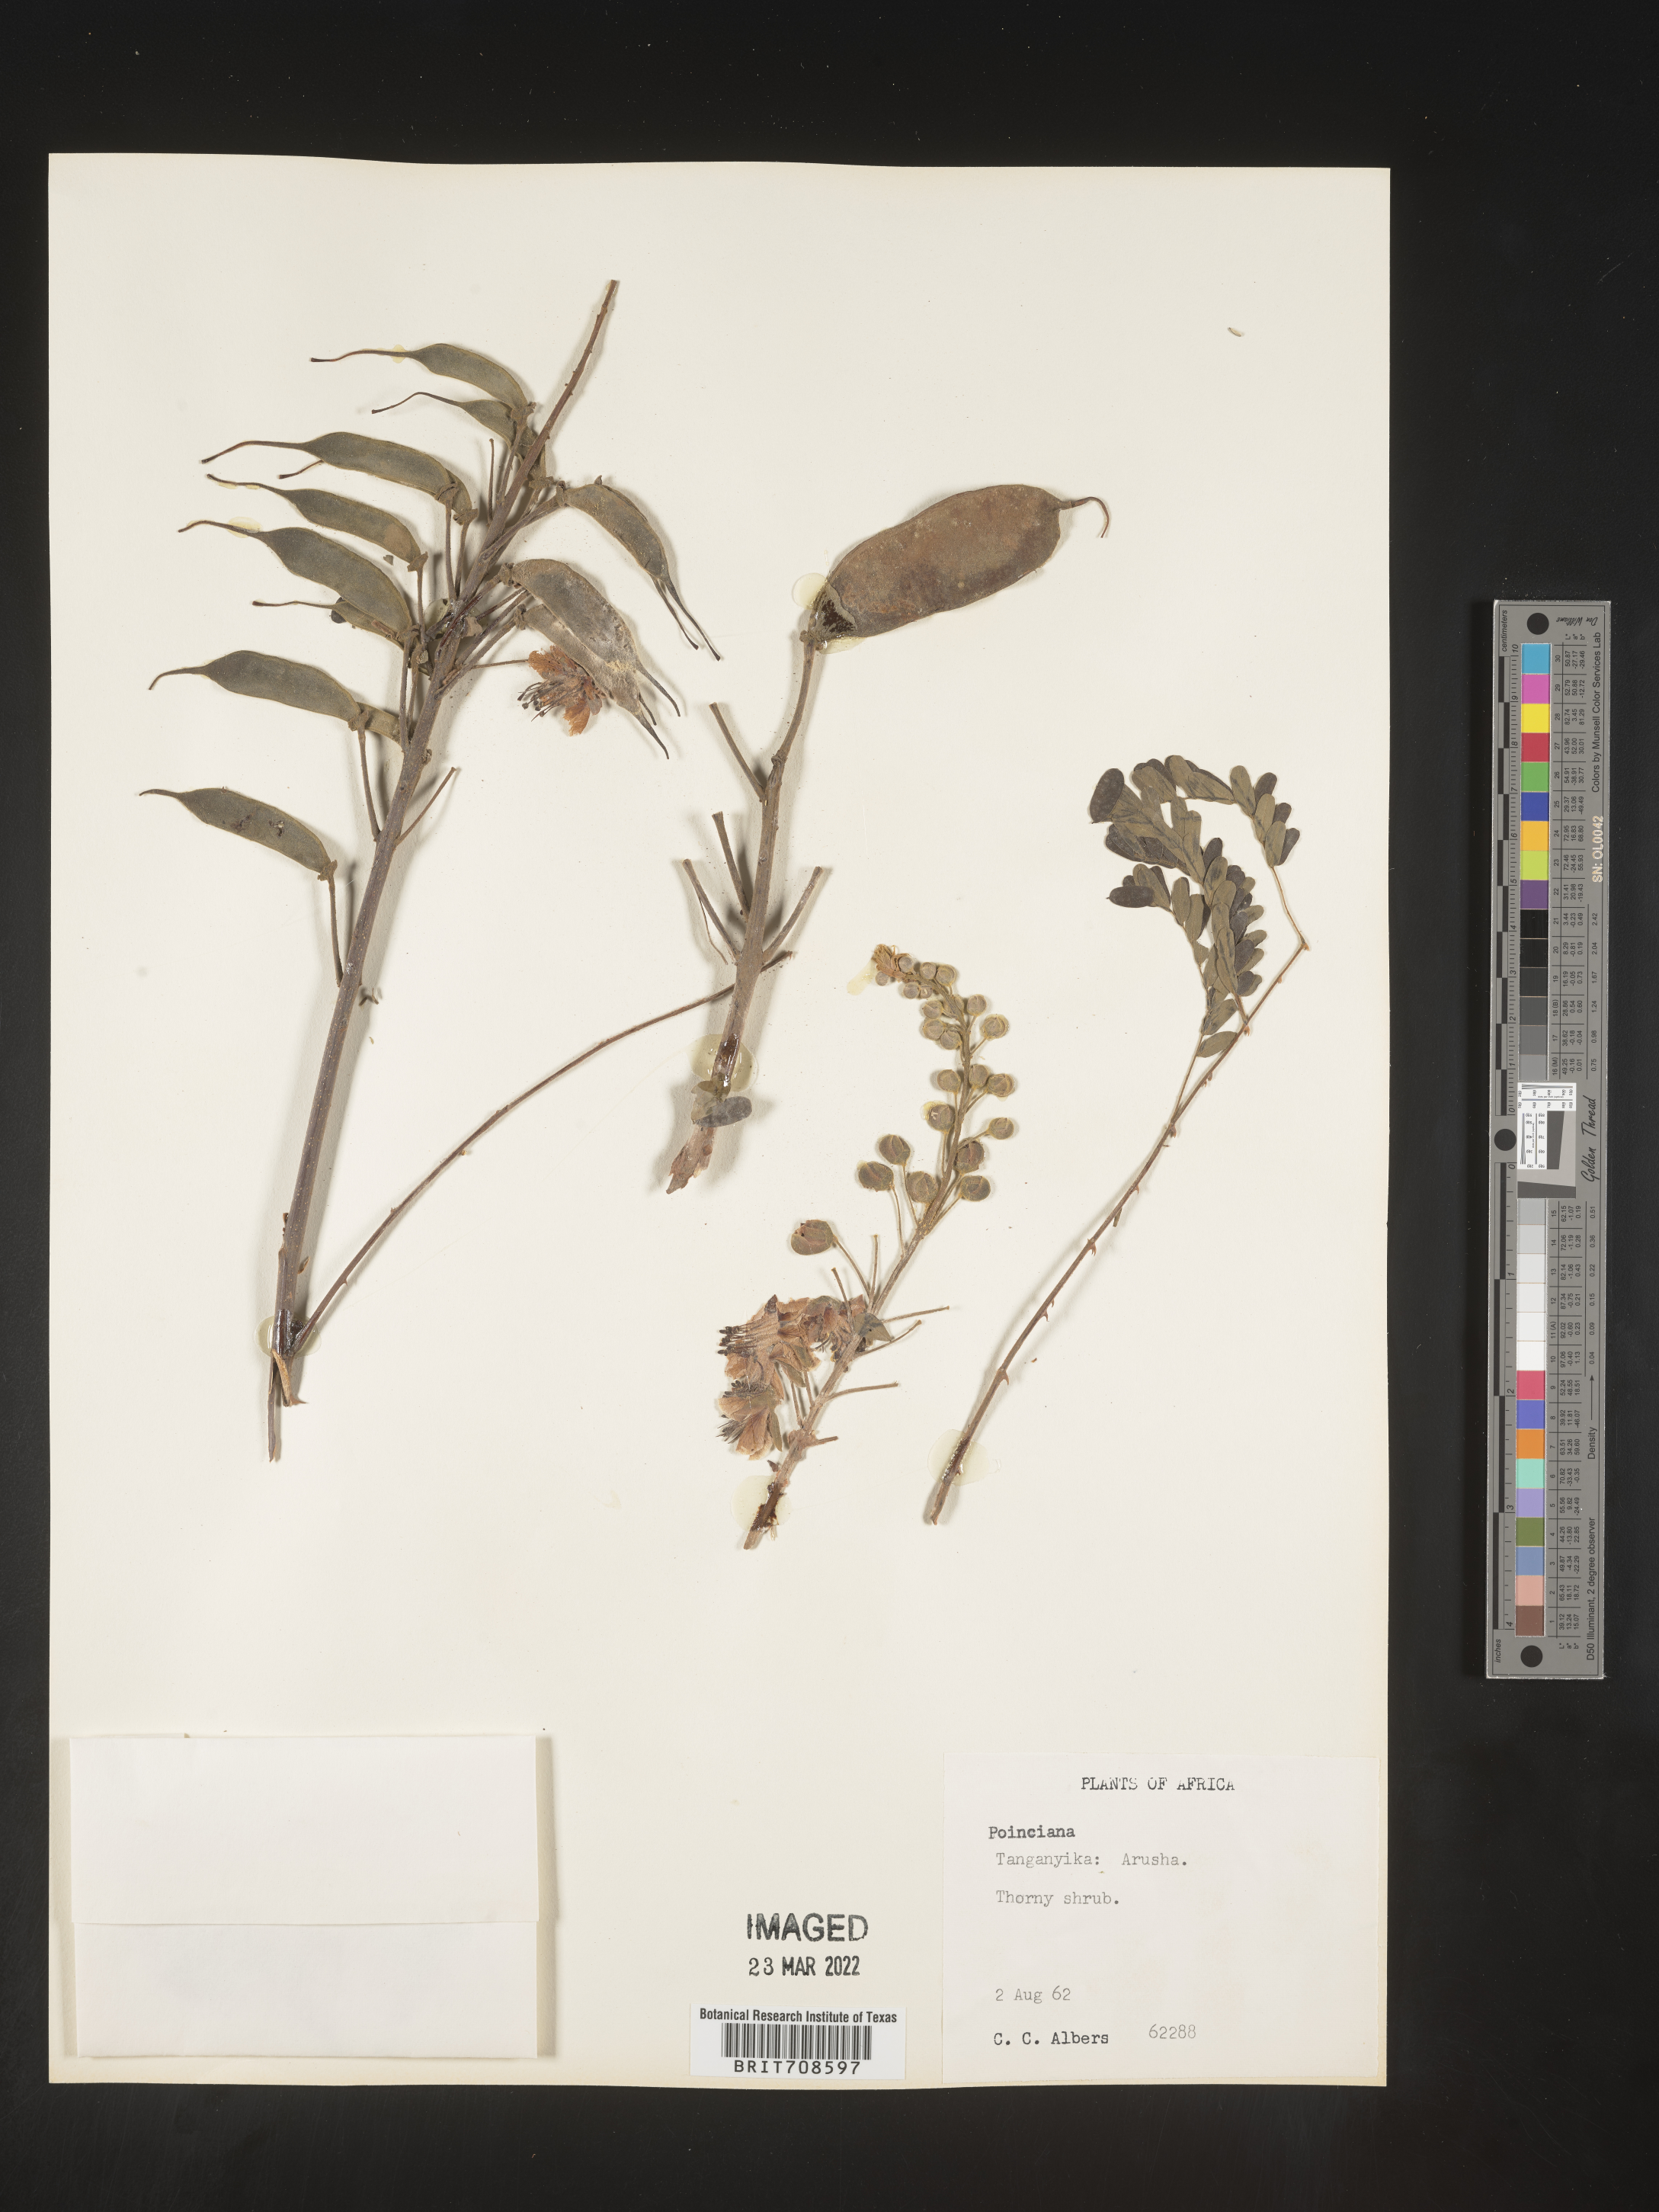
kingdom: Plantae
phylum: Tracheophyta
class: Magnoliopsida
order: Fabales
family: Fabaceae
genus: Caesalpinia
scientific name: Caesalpinia
